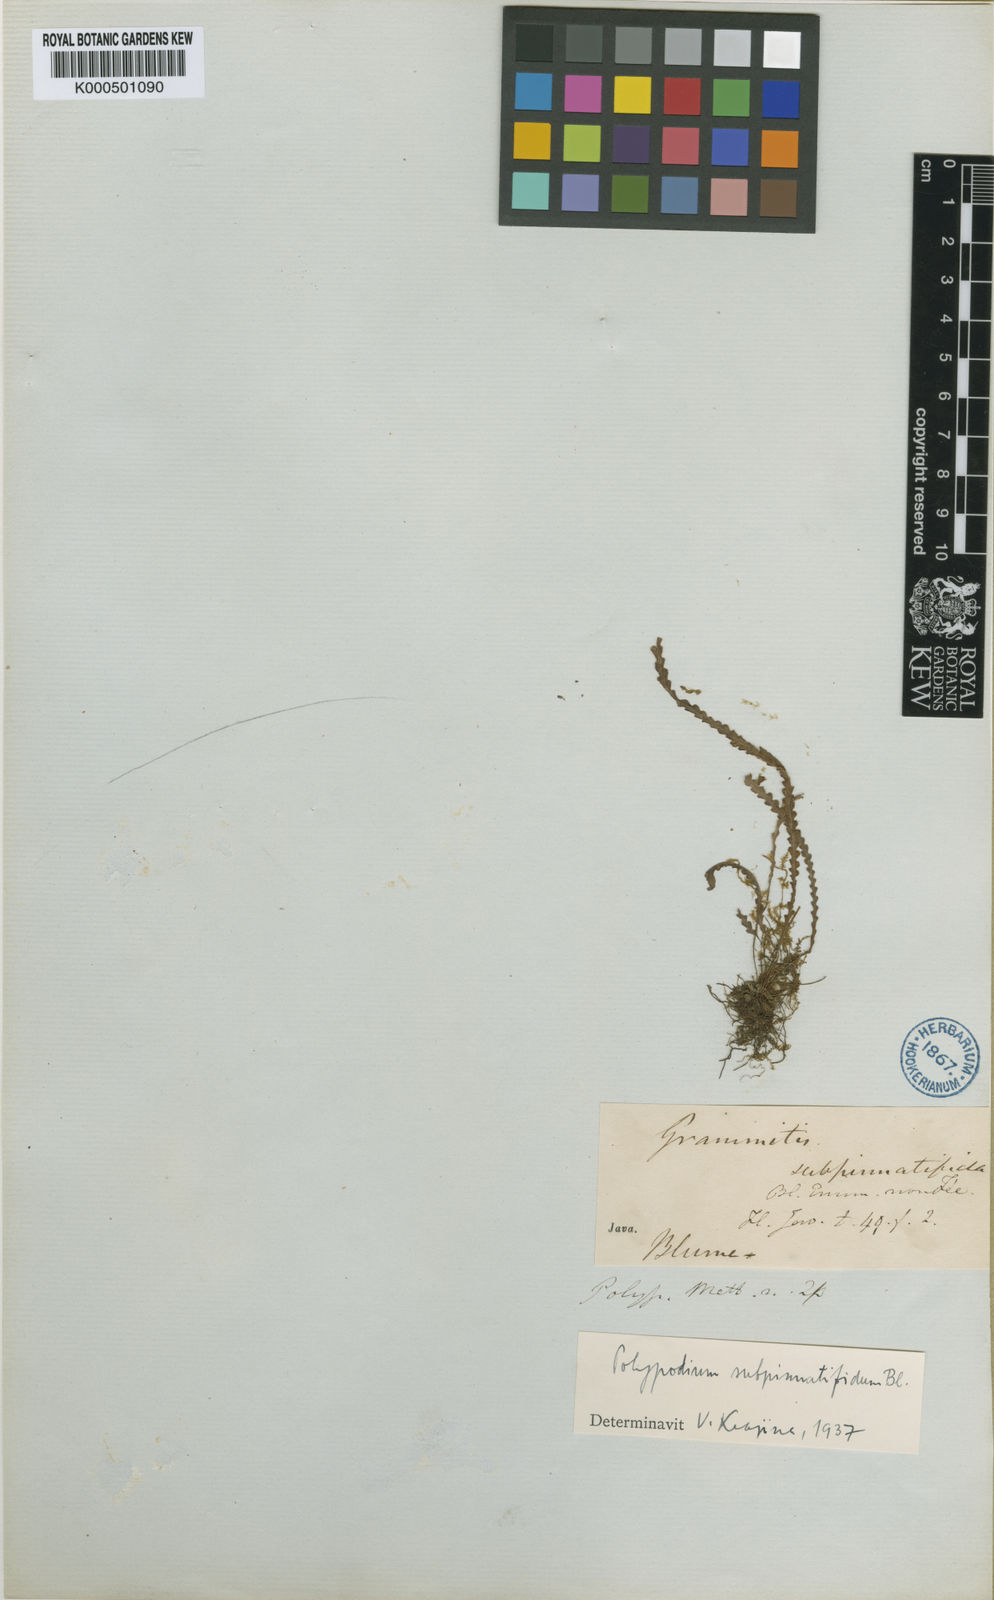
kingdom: Plantae
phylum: Tracheophyta
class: Polypodiopsida
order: Polypodiales
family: Polypodiaceae
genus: Oreogrammitis
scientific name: Oreogrammitis subpinnatifida
